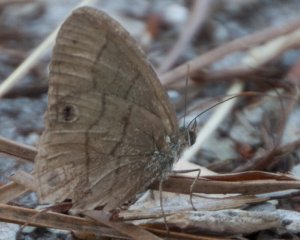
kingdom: Animalia
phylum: Arthropoda
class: Insecta
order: Lepidoptera
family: Nymphalidae
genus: Hermeuptychia
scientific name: Hermeuptychia hermes
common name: Carolina Satyr
